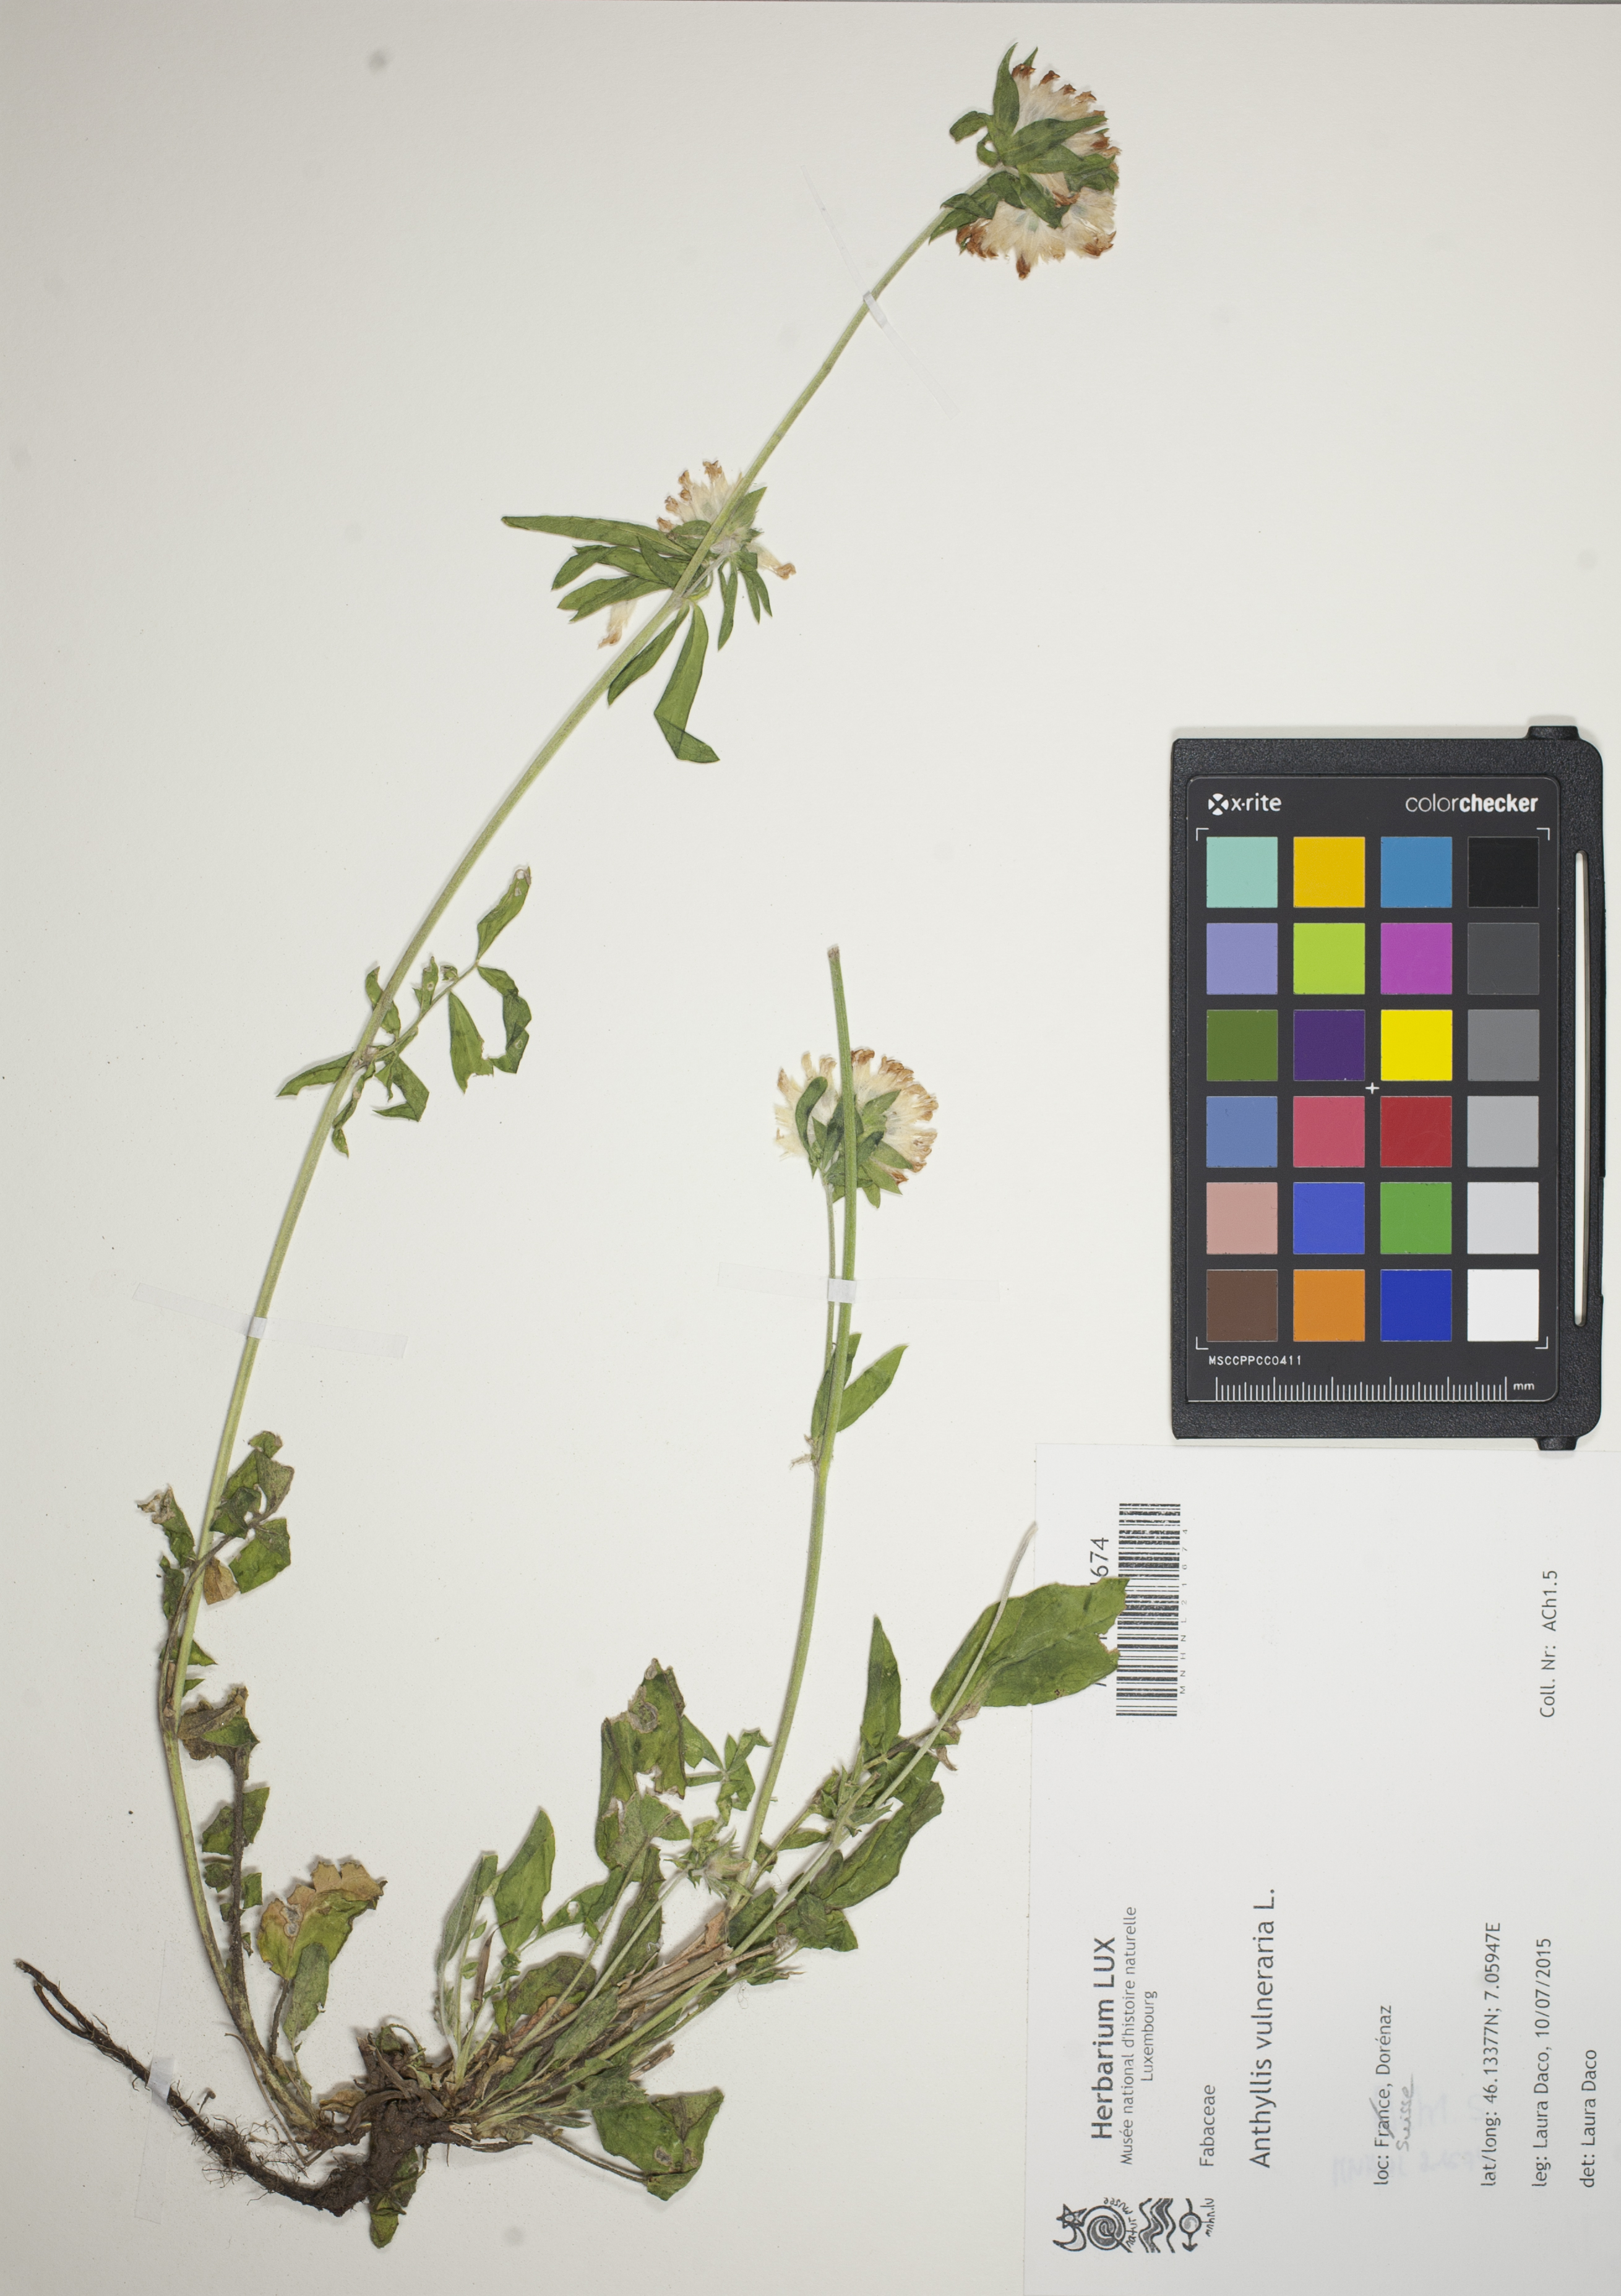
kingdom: Plantae
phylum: Tracheophyta
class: Magnoliopsida
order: Fabales
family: Fabaceae
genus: Anthyllis
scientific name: Anthyllis vulneraria
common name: Kidney vetch
